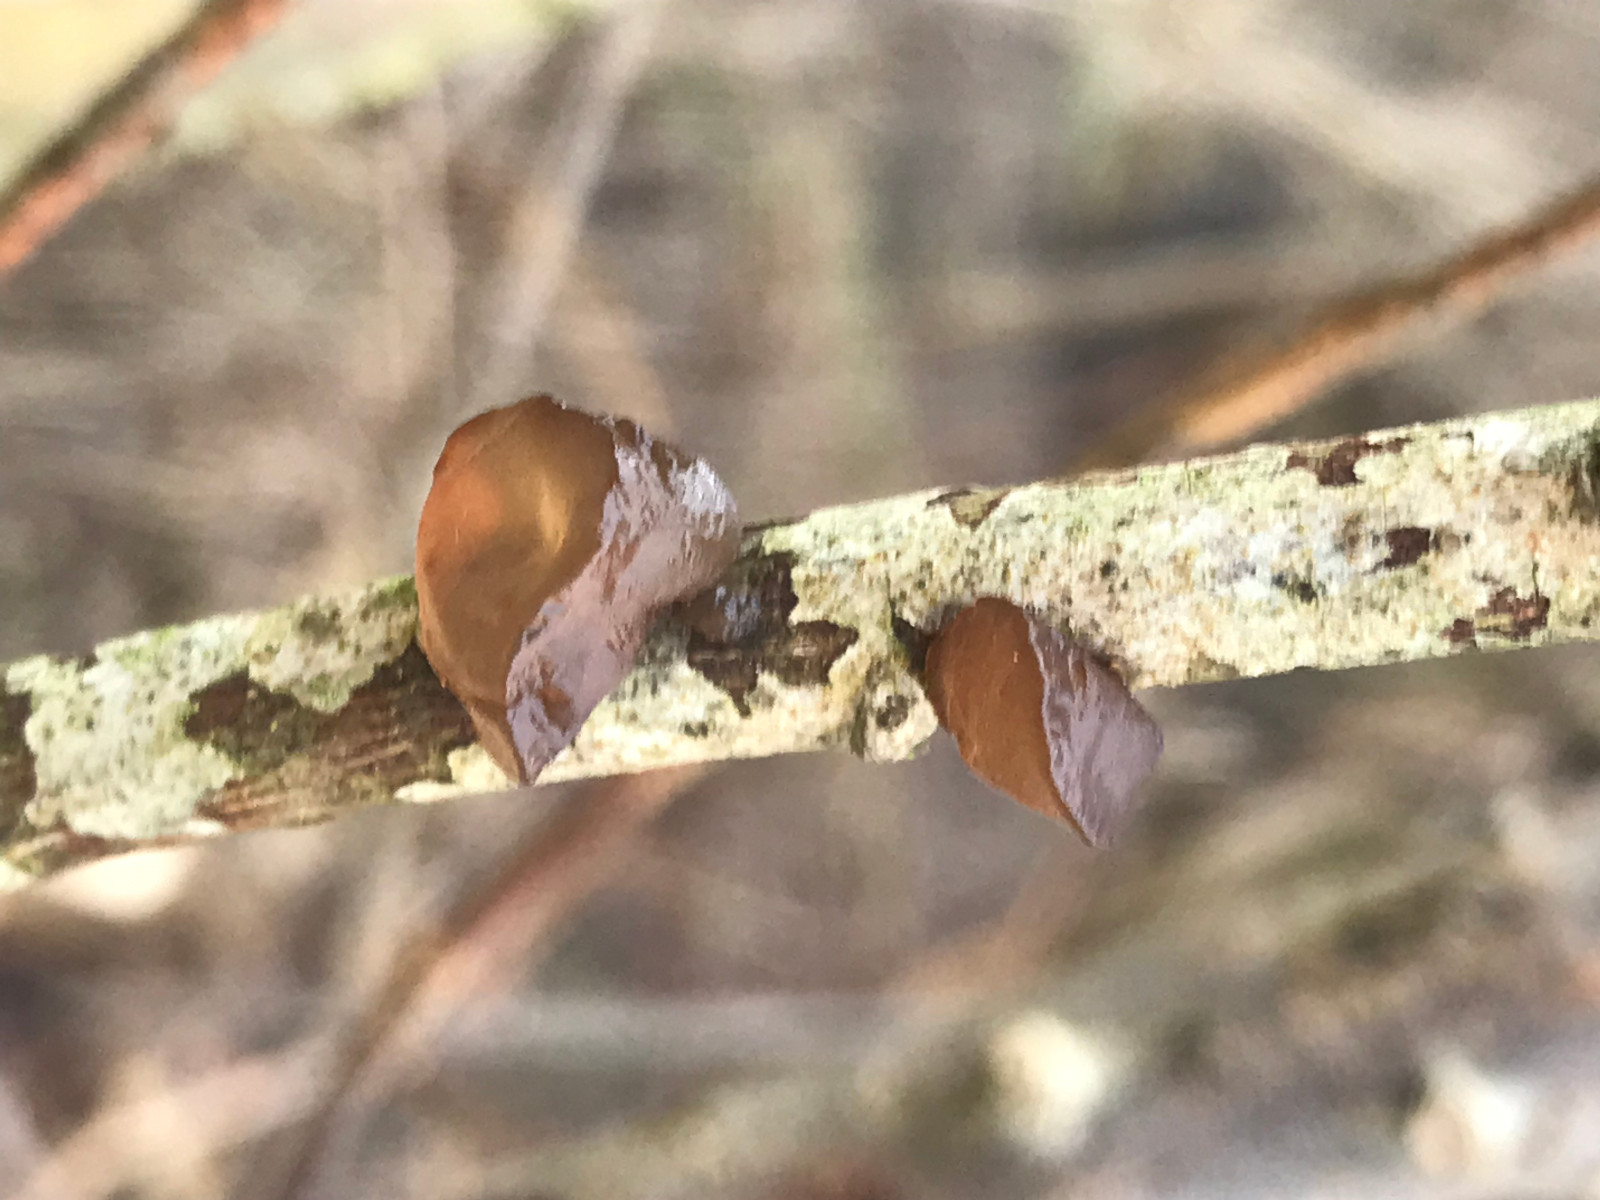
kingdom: Fungi
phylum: Basidiomycota
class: Agaricomycetes
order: Auriculariales
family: Auriculariaceae
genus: Exidia
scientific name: Exidia recisa
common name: pile-bævretop
